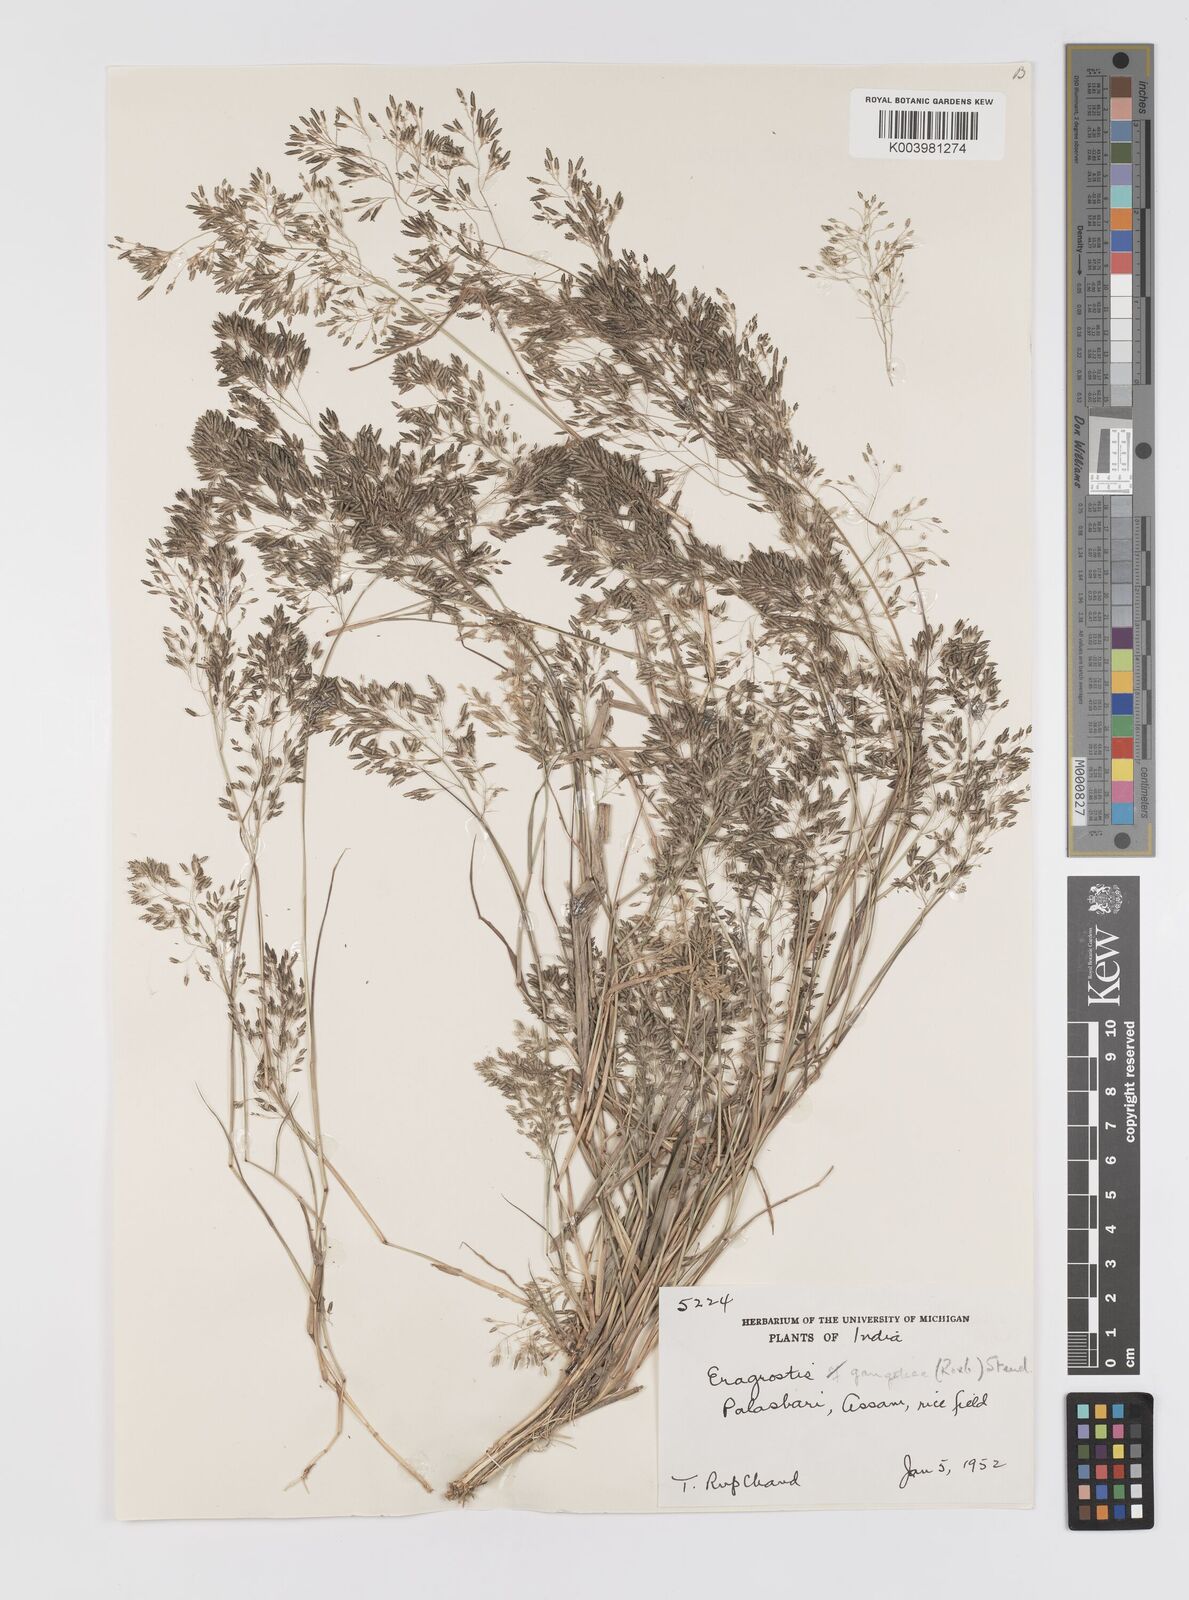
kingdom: Plantae
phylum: Tracheophyta
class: Liliopsida
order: Poales
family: Poaceae
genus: Eragrostis
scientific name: Eragrostis gangetica
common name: Slimflower lovegrass
